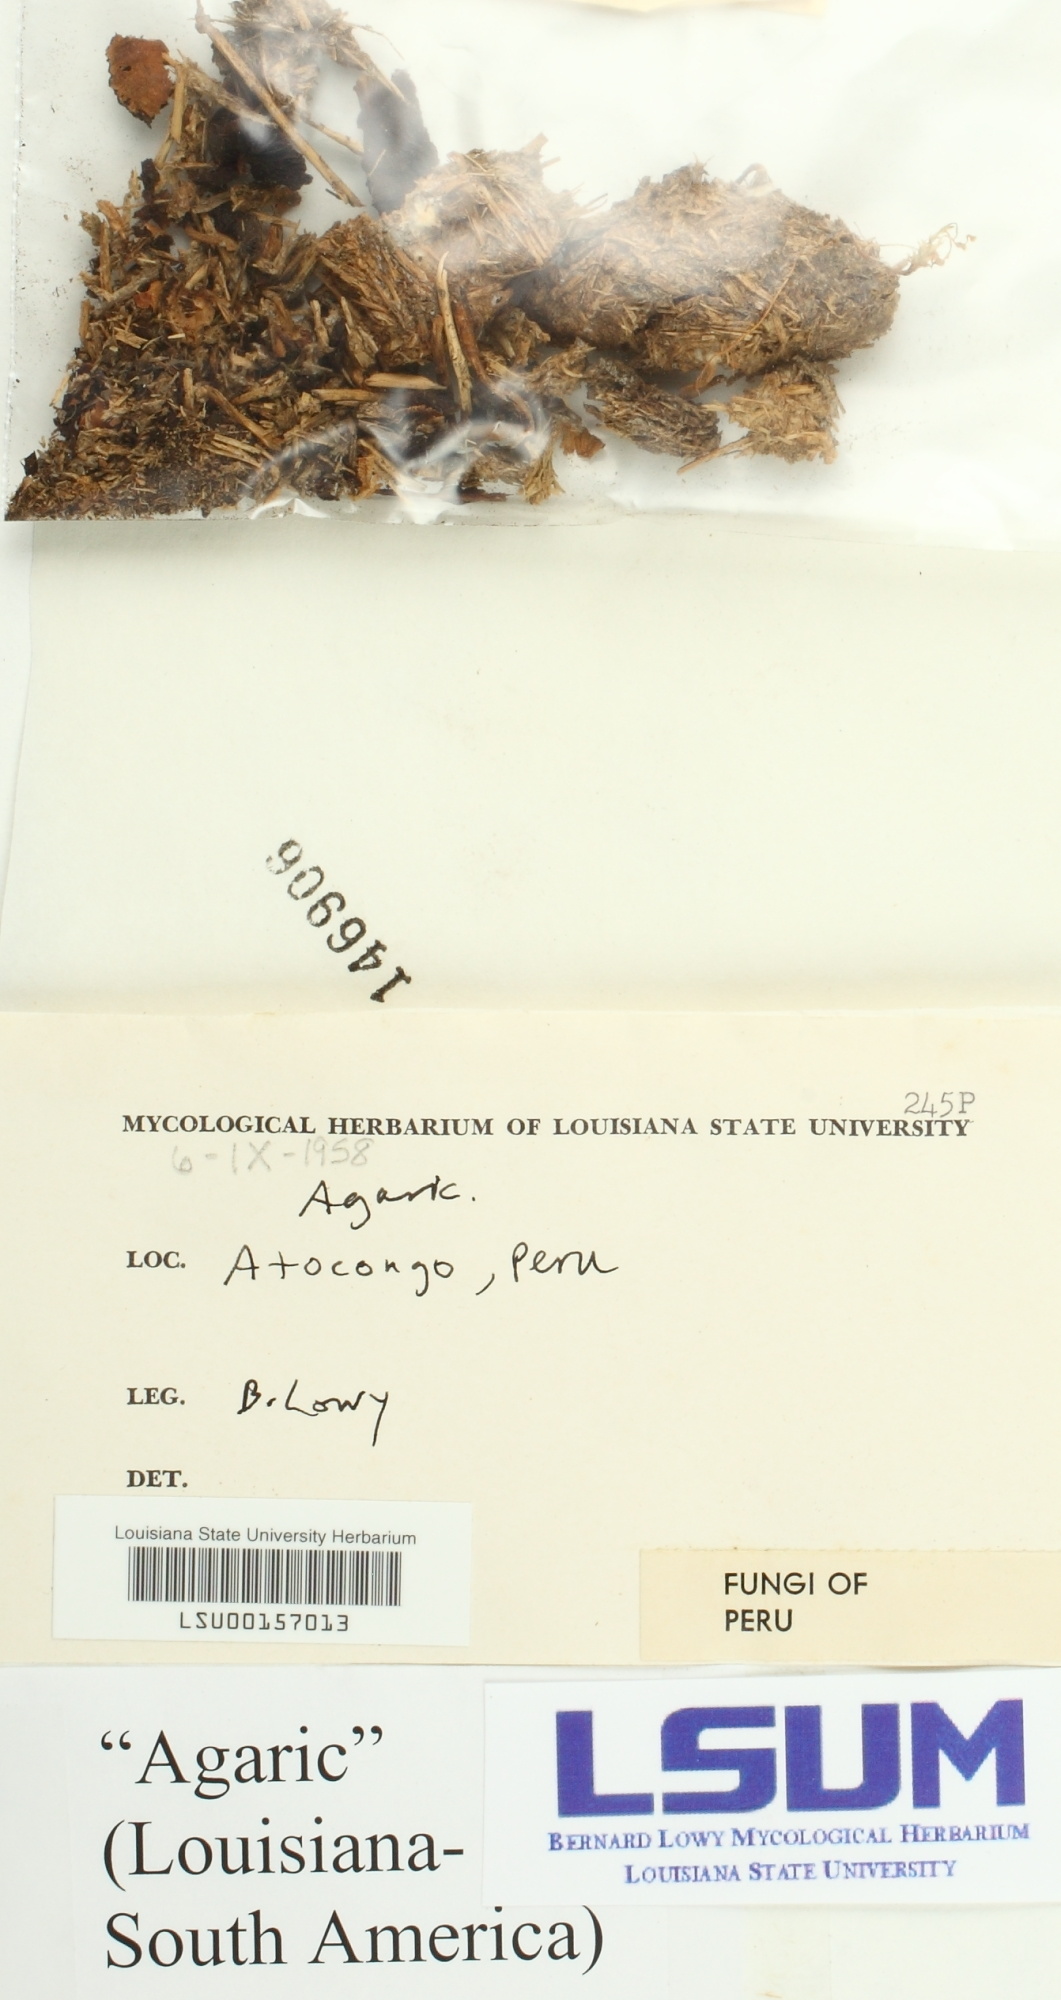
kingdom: Fungi
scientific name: Fungi
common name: Fungi
